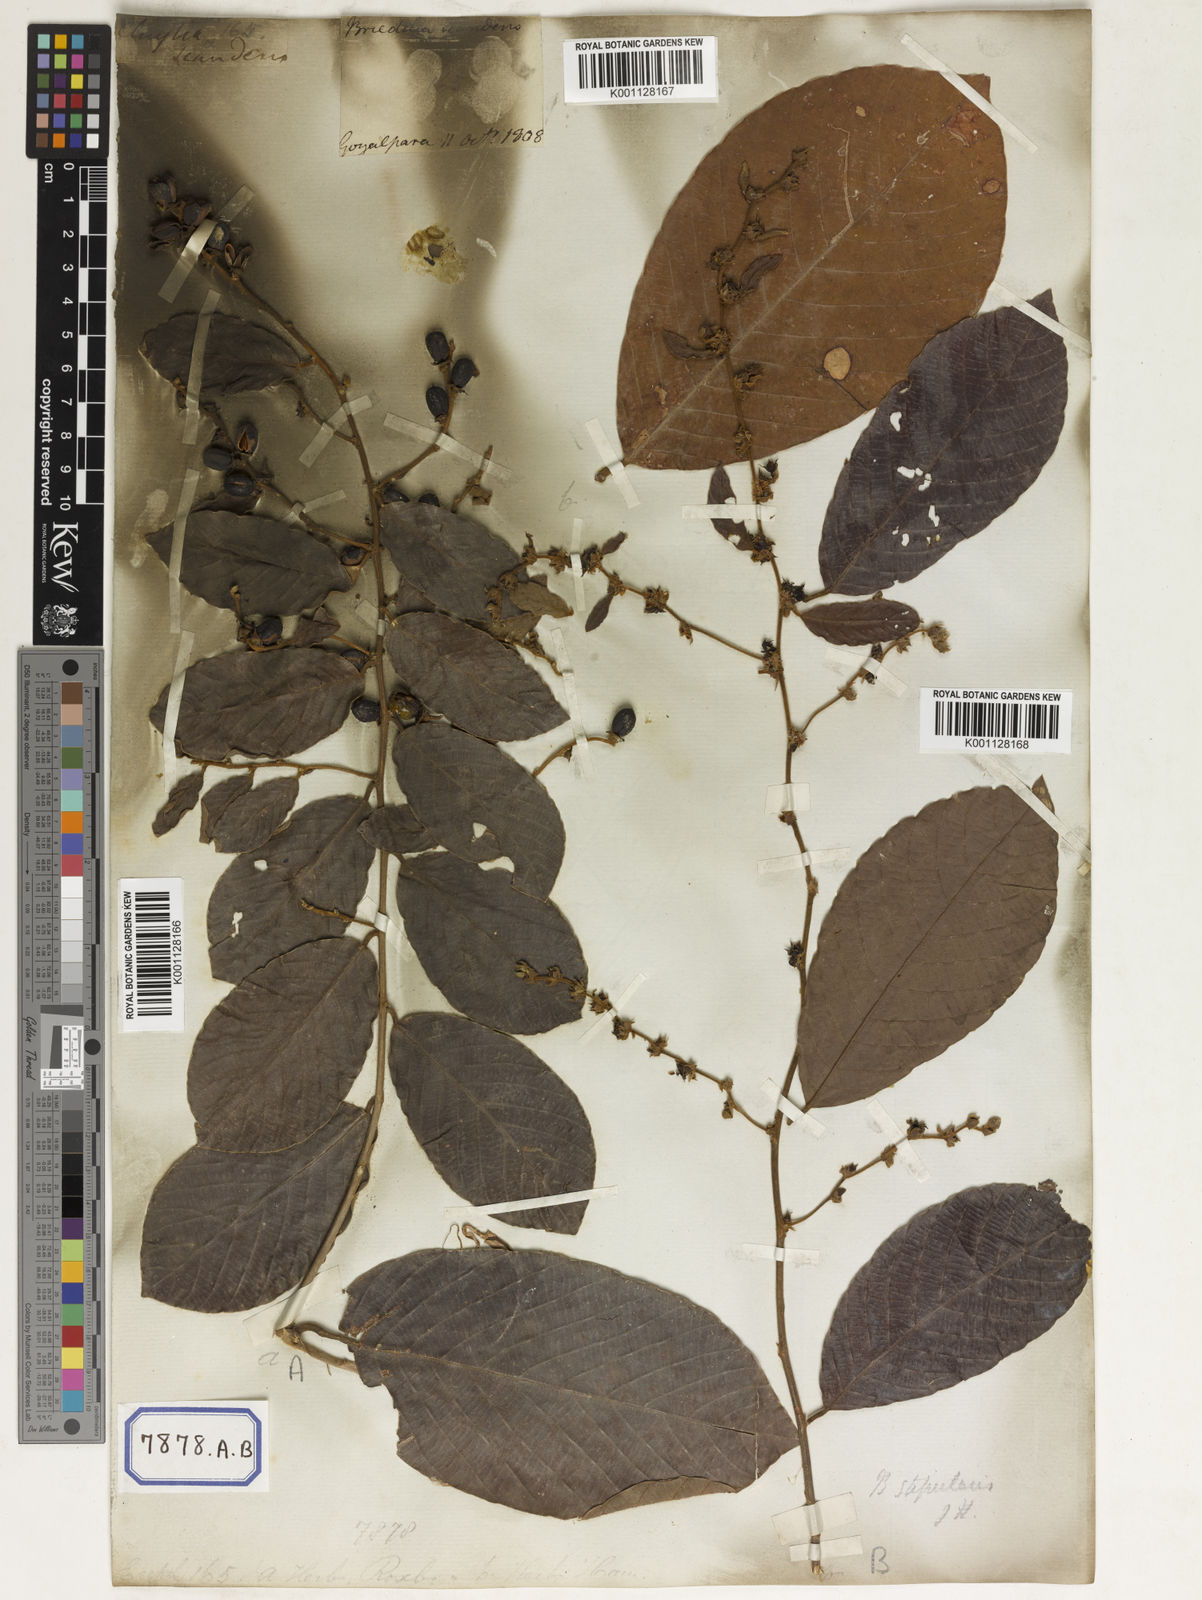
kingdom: Plantae
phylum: Tracheophyta
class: Magnoliopsida
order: Malpighiales
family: Phyllanthaceae
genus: Bridelia
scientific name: Bridelia
